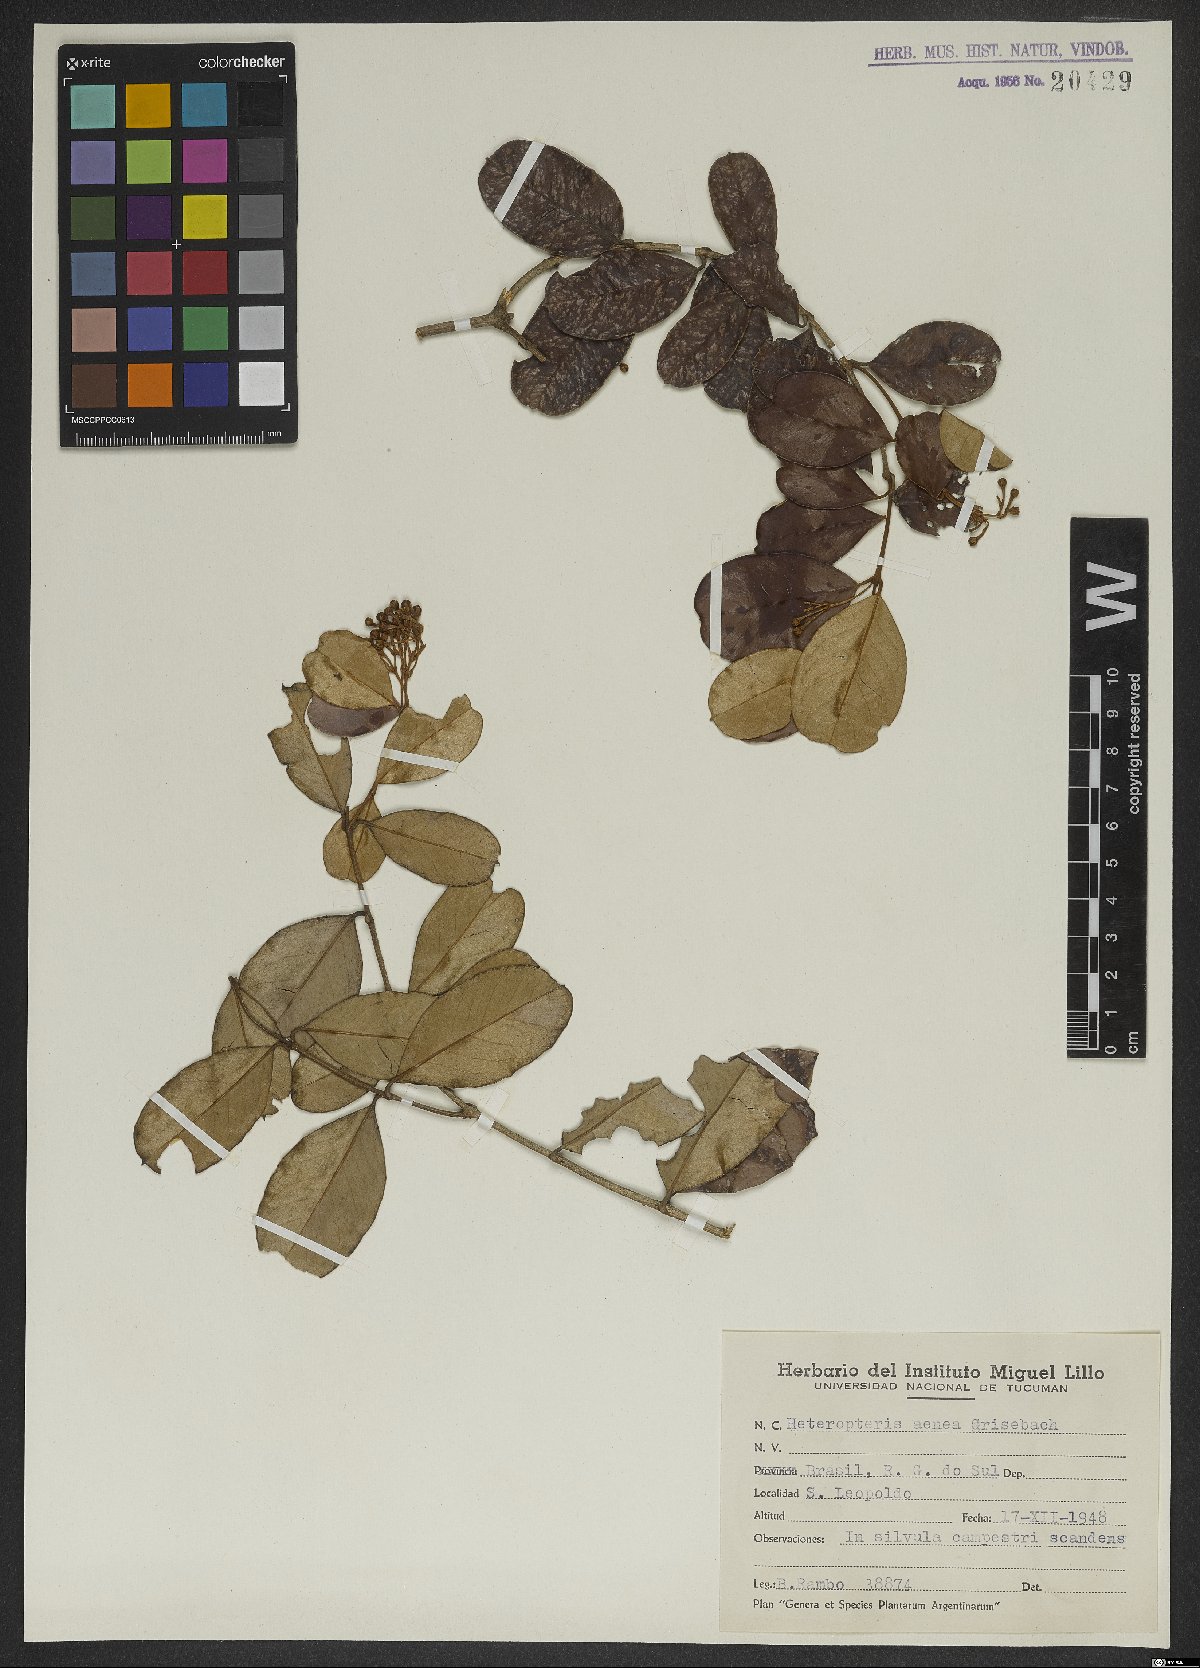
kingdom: Plantae
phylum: Tracheophyta
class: Magnoliopsida
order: Malpighiales
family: Malpighiaceae
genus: Heteropterys
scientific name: Heteropterys aenea
